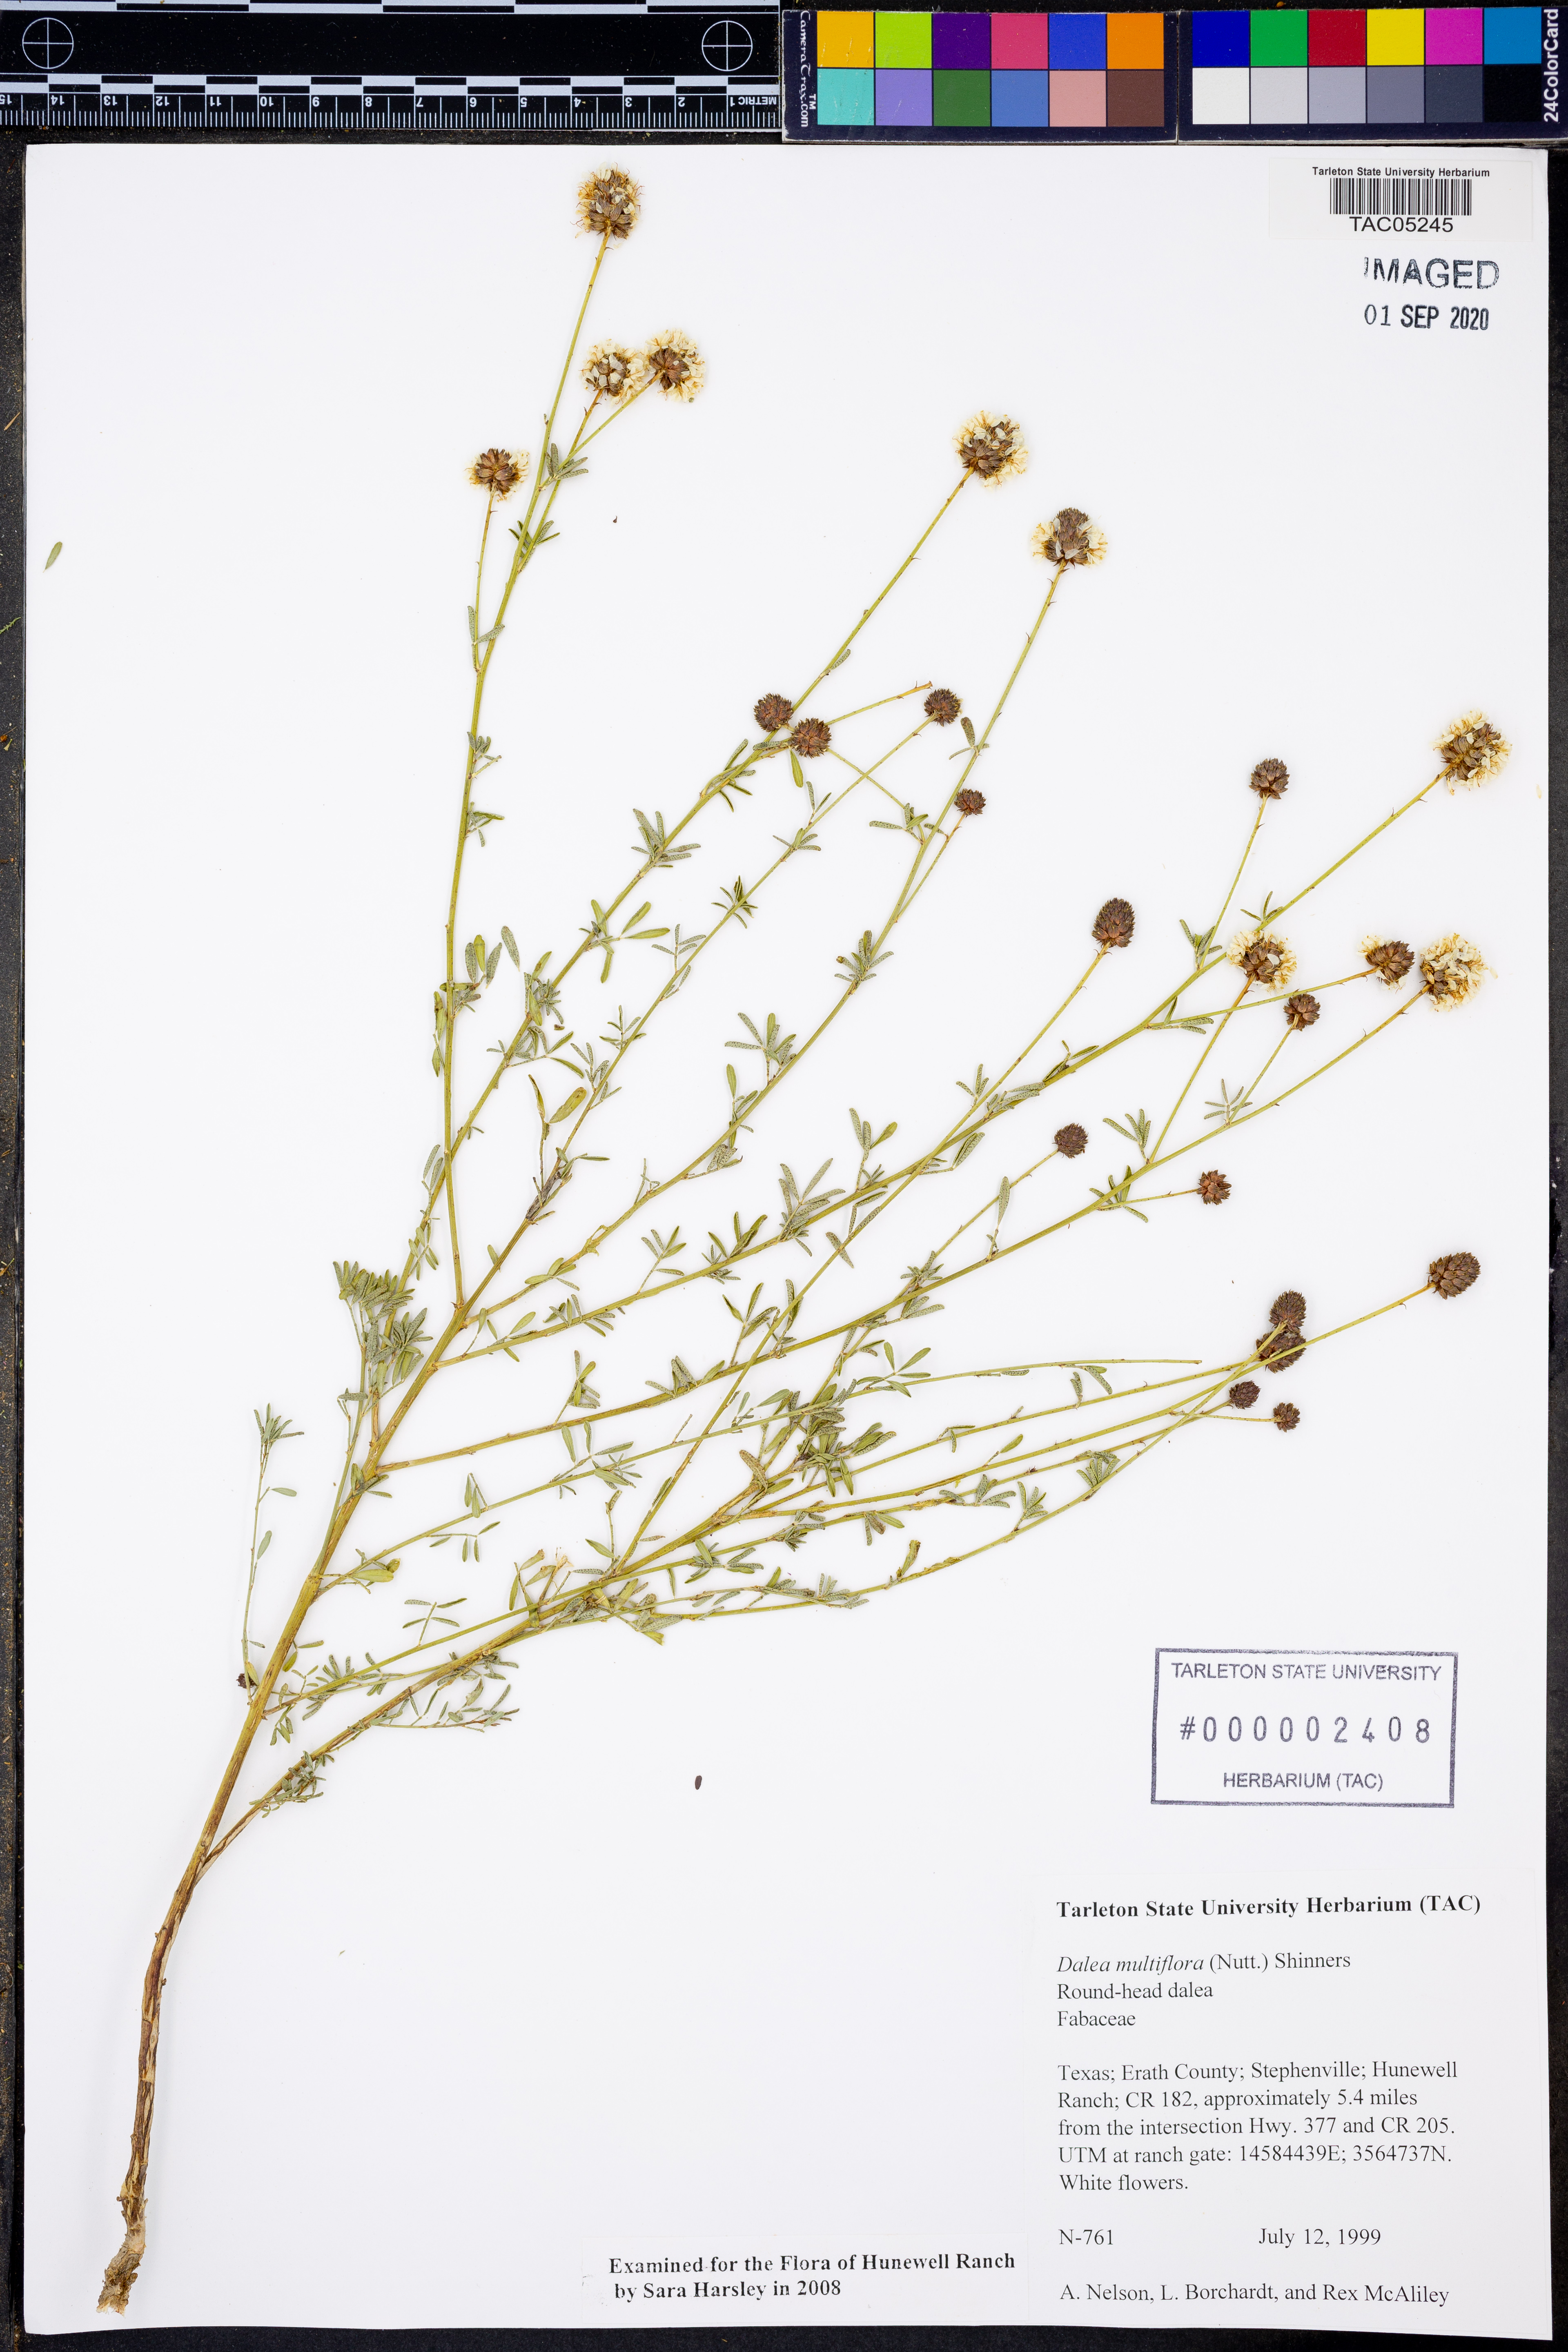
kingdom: Plantae
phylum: Tracheophyta
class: Magnoliopsida
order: Fabales
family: Fabaceae
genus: Dalea
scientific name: Dalea multiflora
